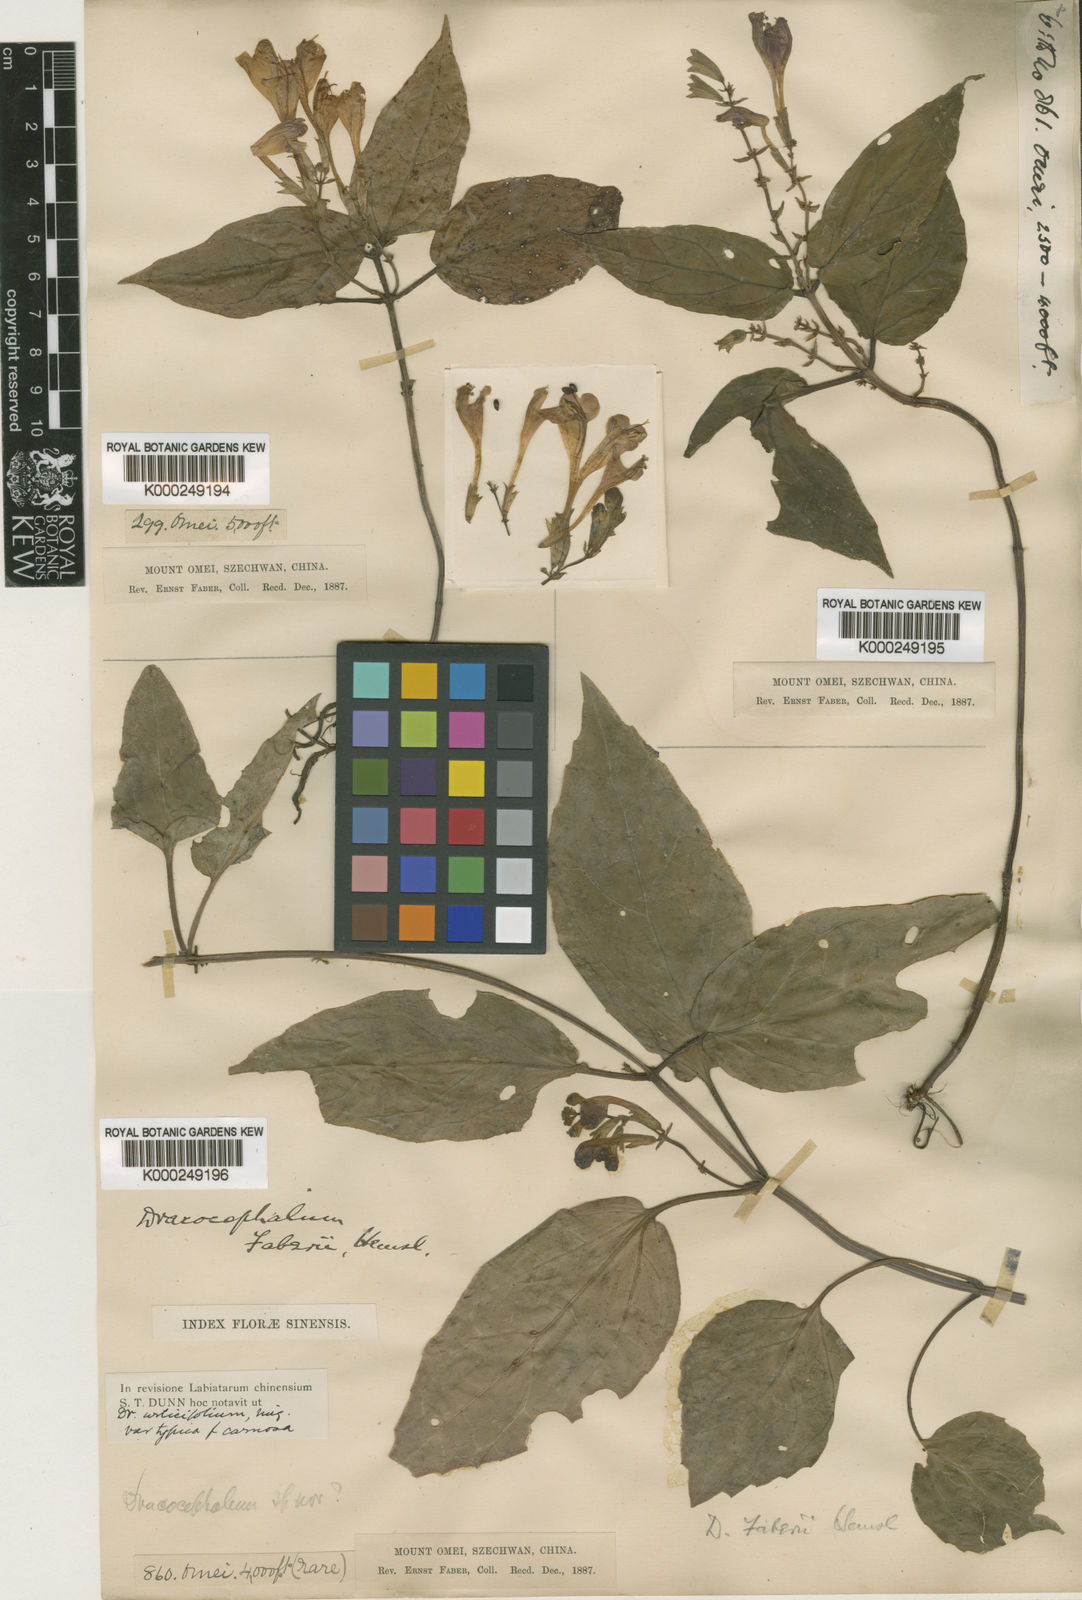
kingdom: Plantae
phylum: Tracheophyta
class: Magnoliopsida
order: Lamiales
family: Lamiaceae
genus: Meehania
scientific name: Meehania faberi
